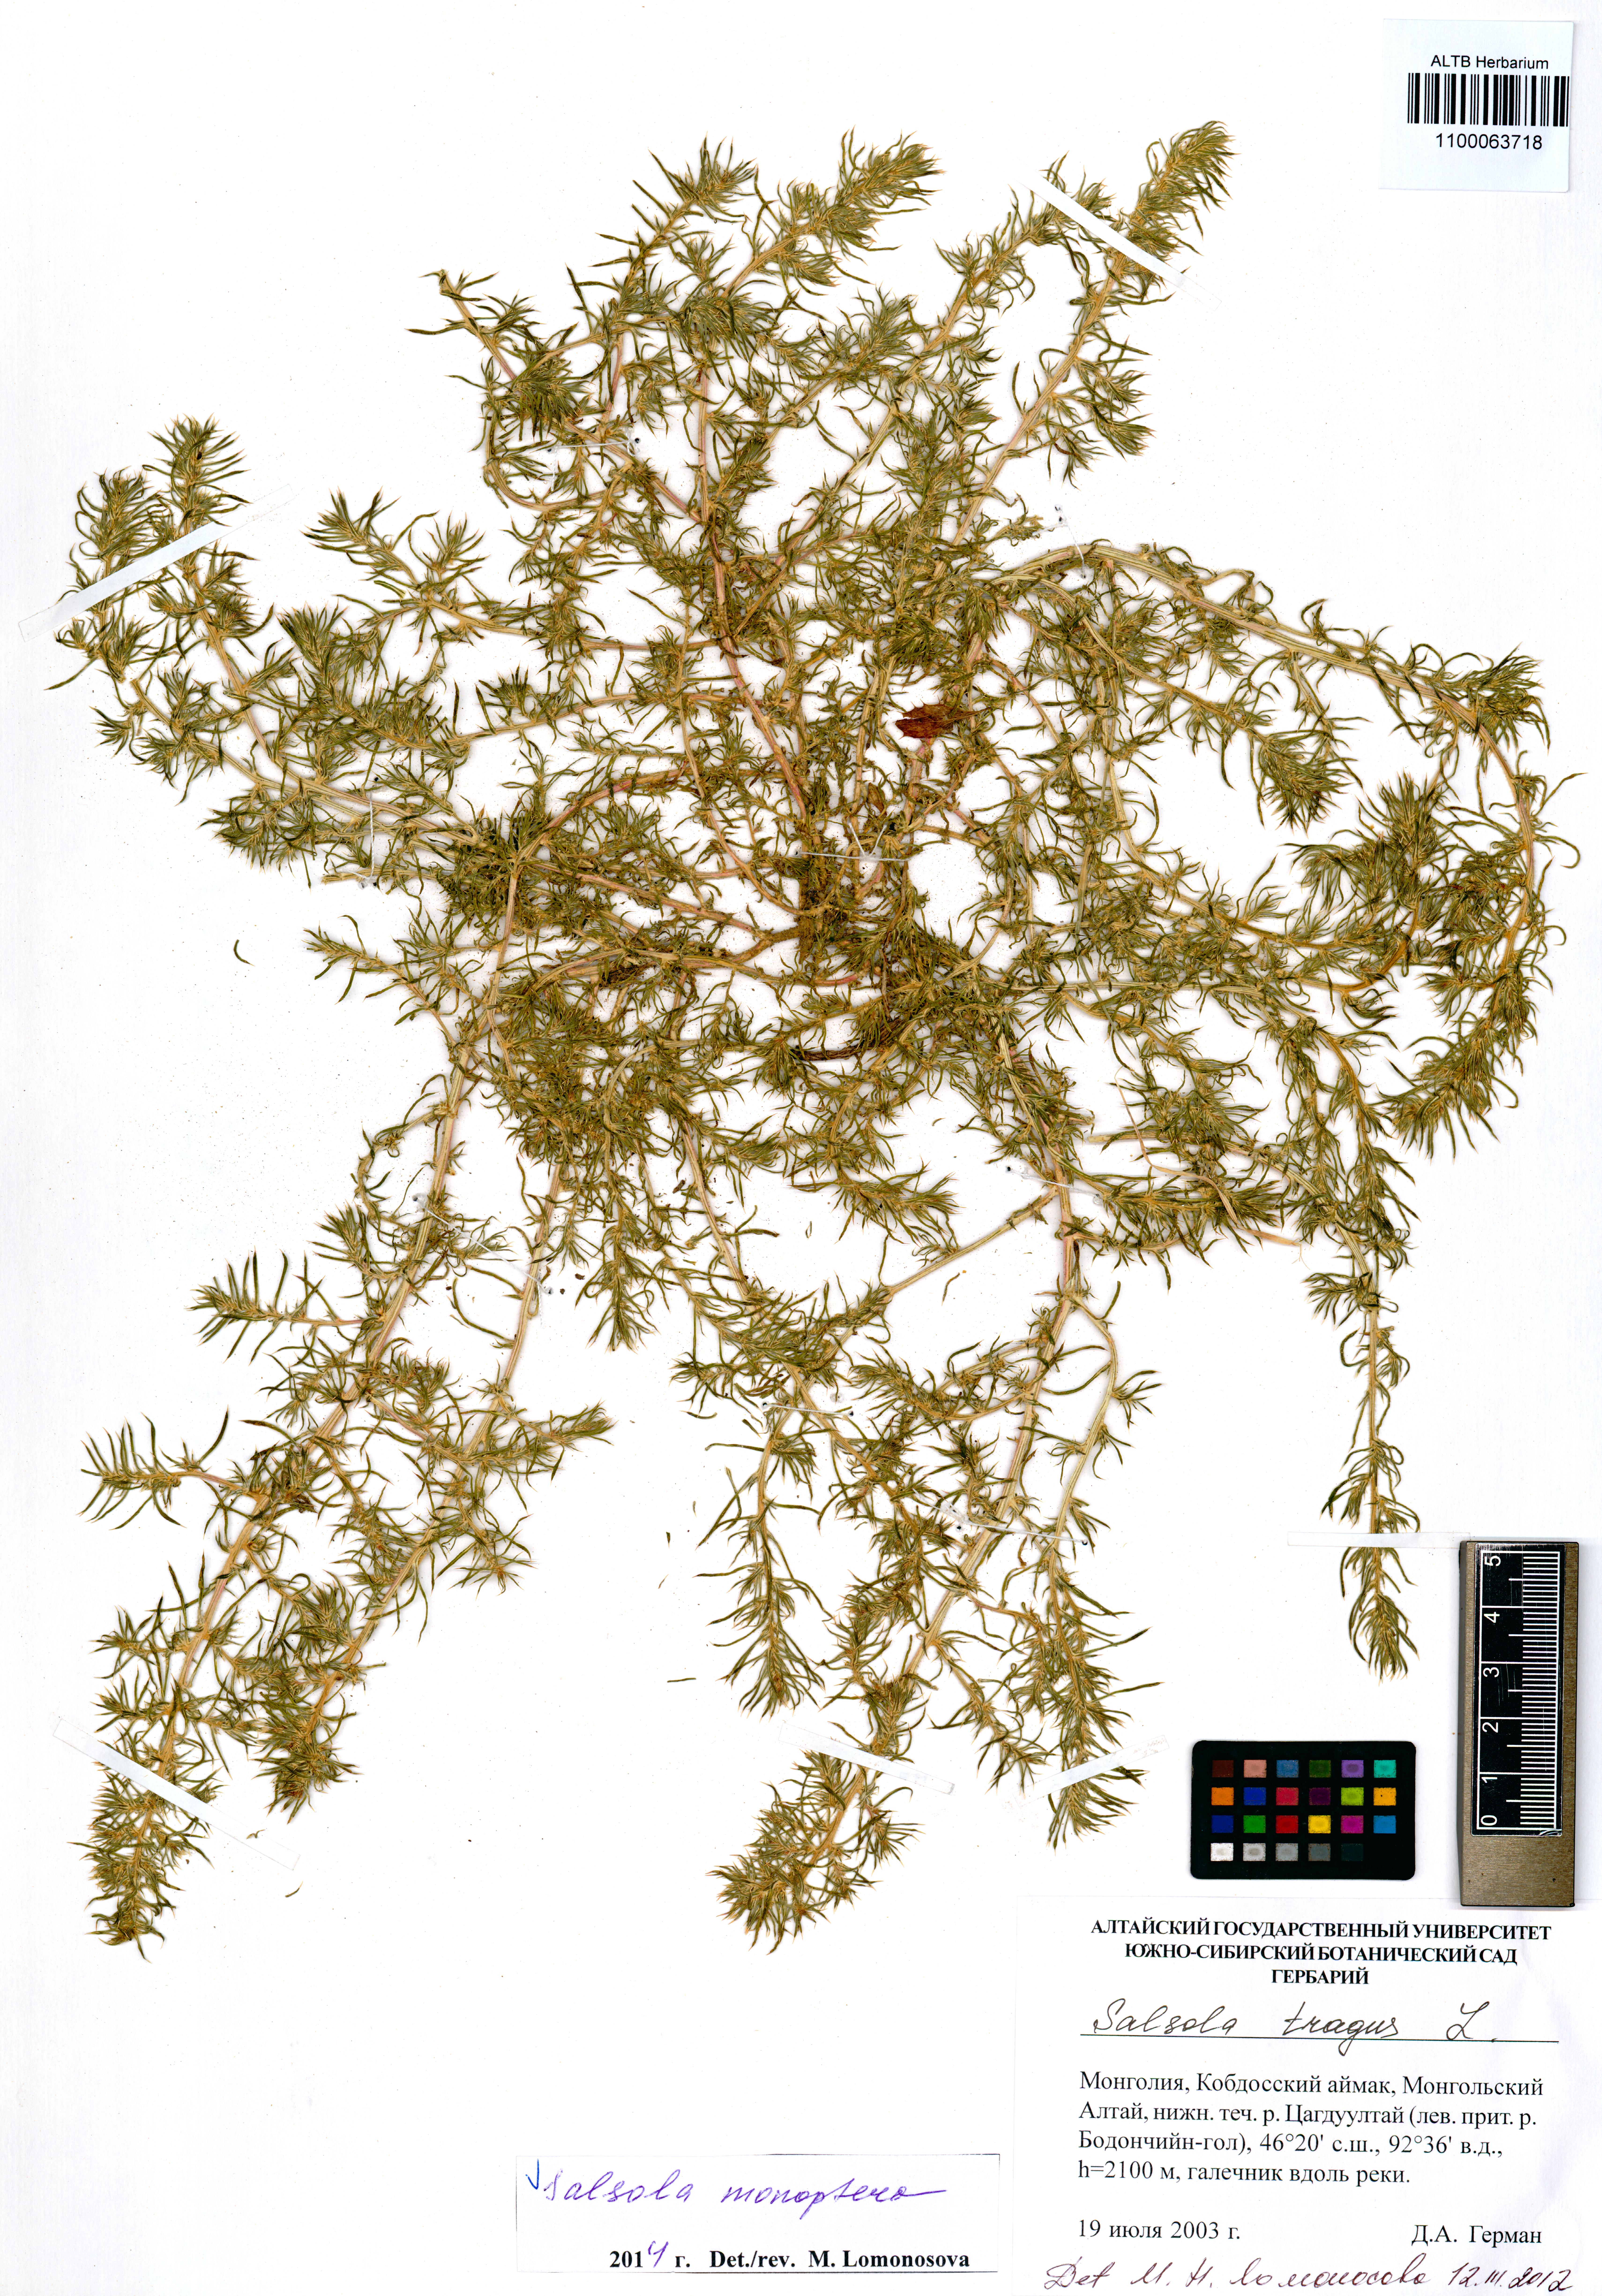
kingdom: Plantae
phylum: Tracheophyta
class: Magnoliopsida
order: Caryophyllales
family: Amaranthaceae
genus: Salsola
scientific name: Salsola monoptera
